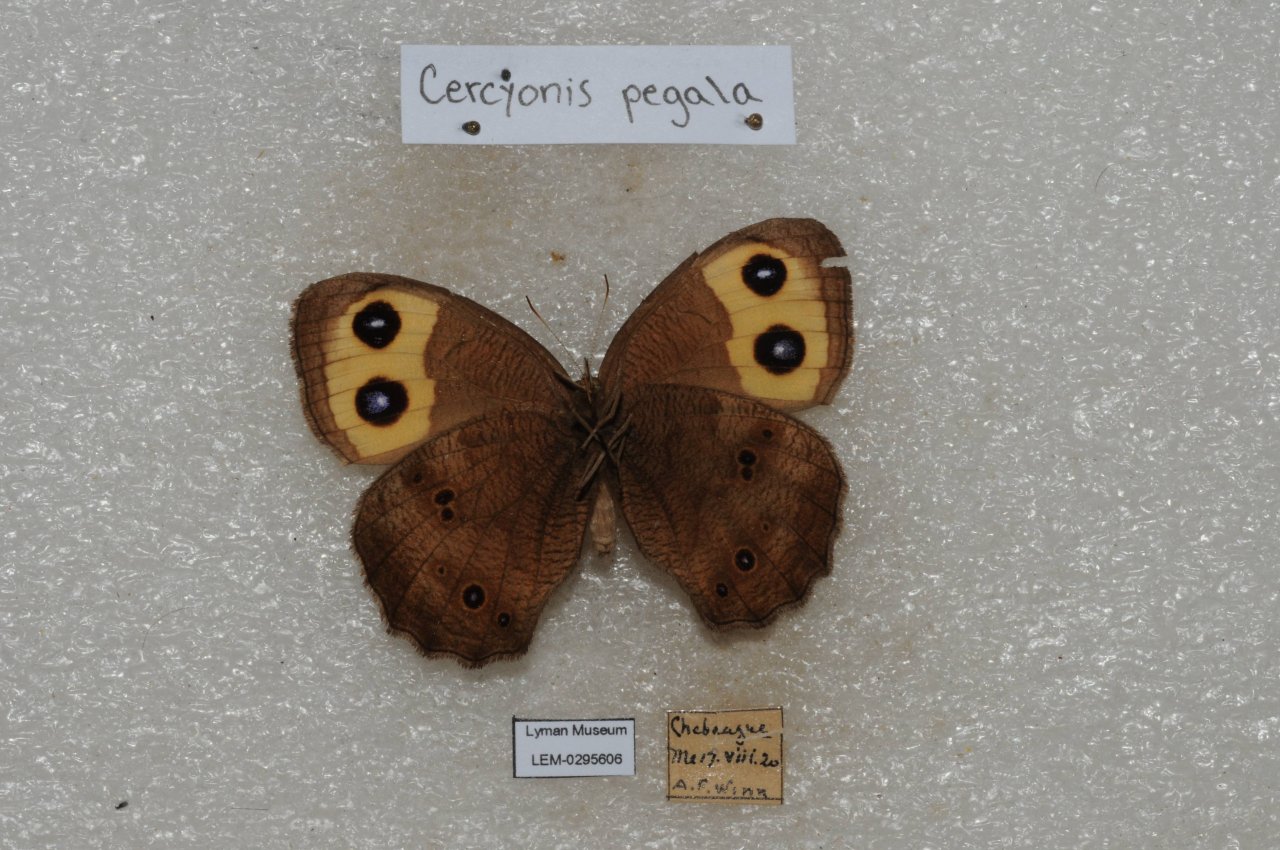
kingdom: Animalia
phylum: Arthropoda
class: Insecta
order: Lepidoptera
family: Nymphalidae
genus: Cercyonis
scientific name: Cercyonis pegala
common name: Common Wood-Nymph
